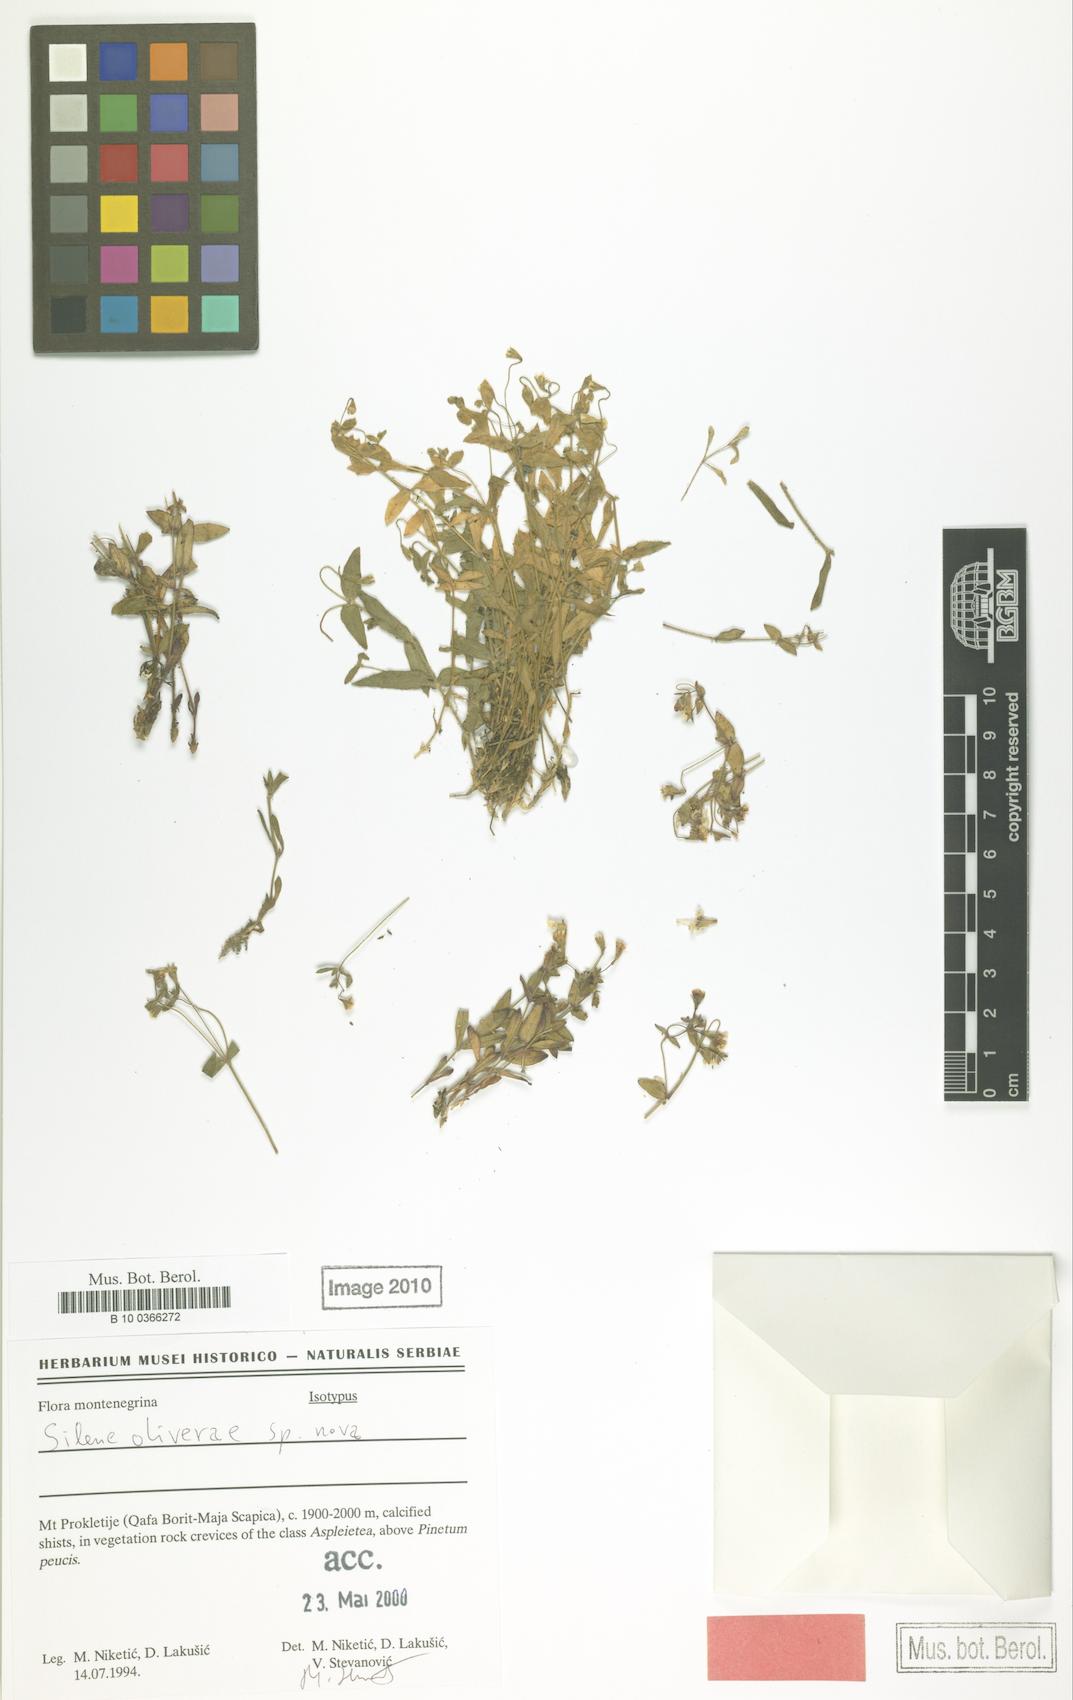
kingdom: Plantae
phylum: Tracheophyta
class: Magnoliopsida
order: Caryophyllales
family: Caryophyllaceae
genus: Silene
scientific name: Silene
